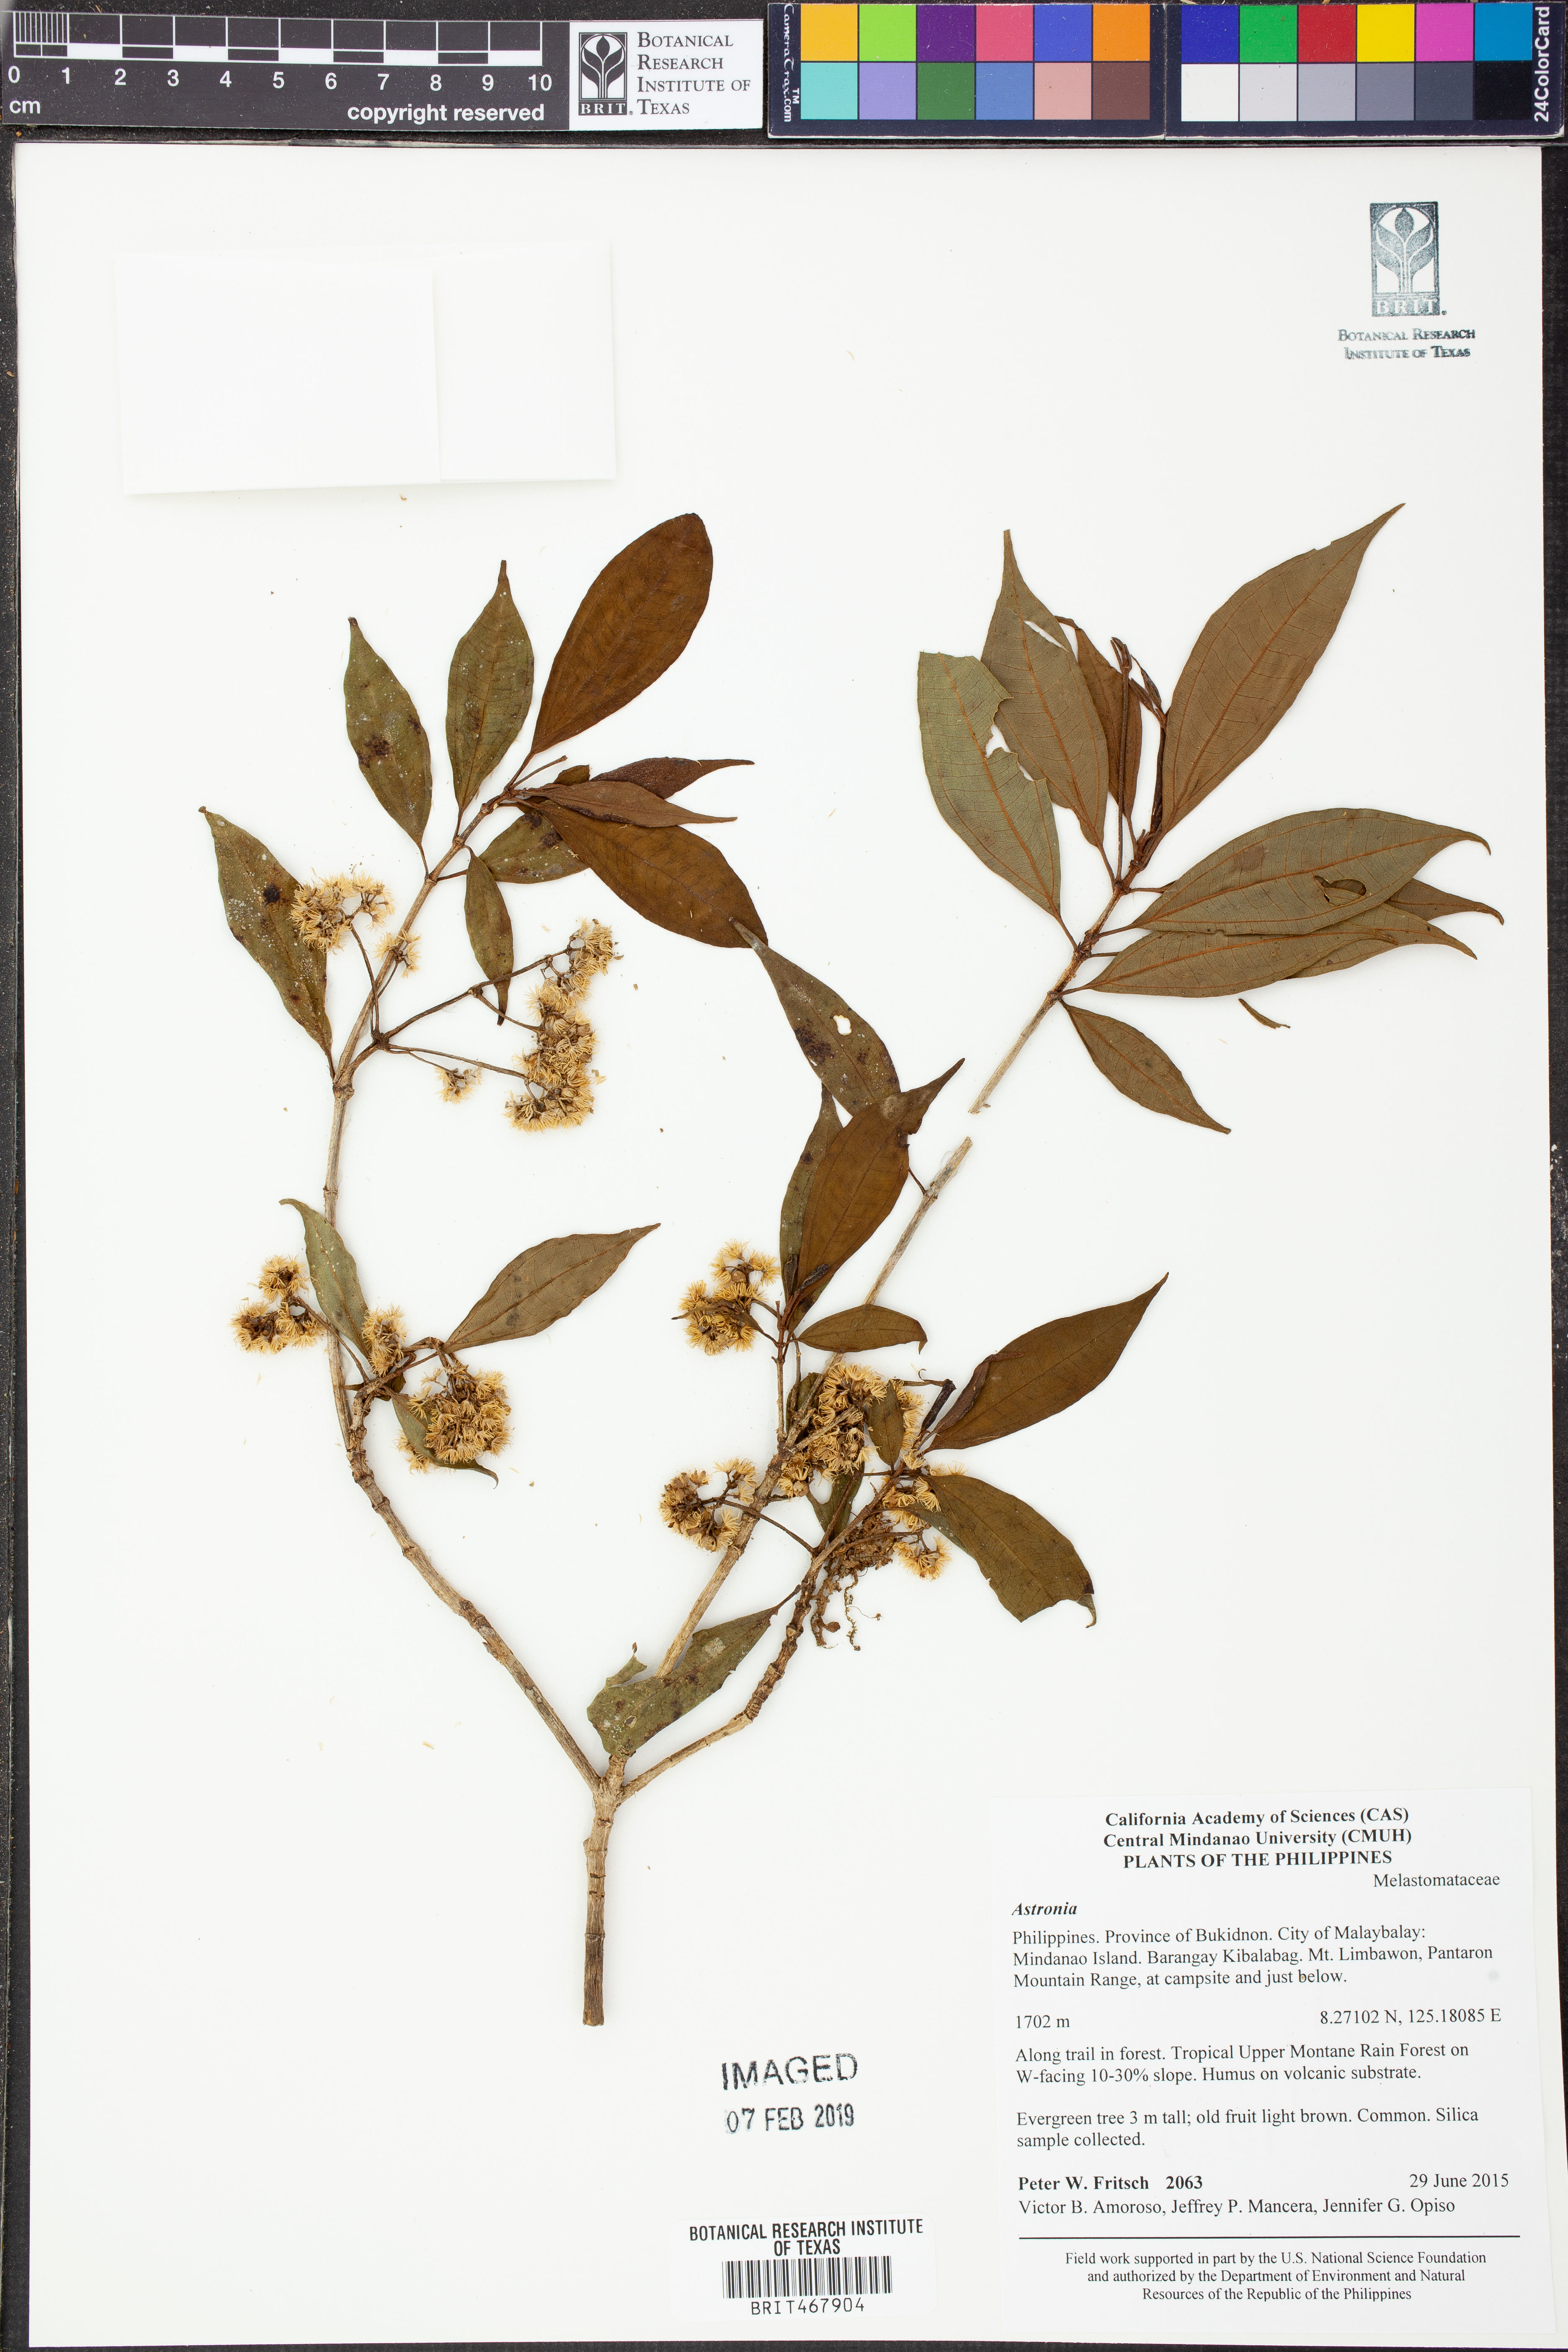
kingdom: Plantae
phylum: Tracheophyta
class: Magnoliopsida
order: Myrtales
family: Melastomataceae
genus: Astronia
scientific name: Astronia
